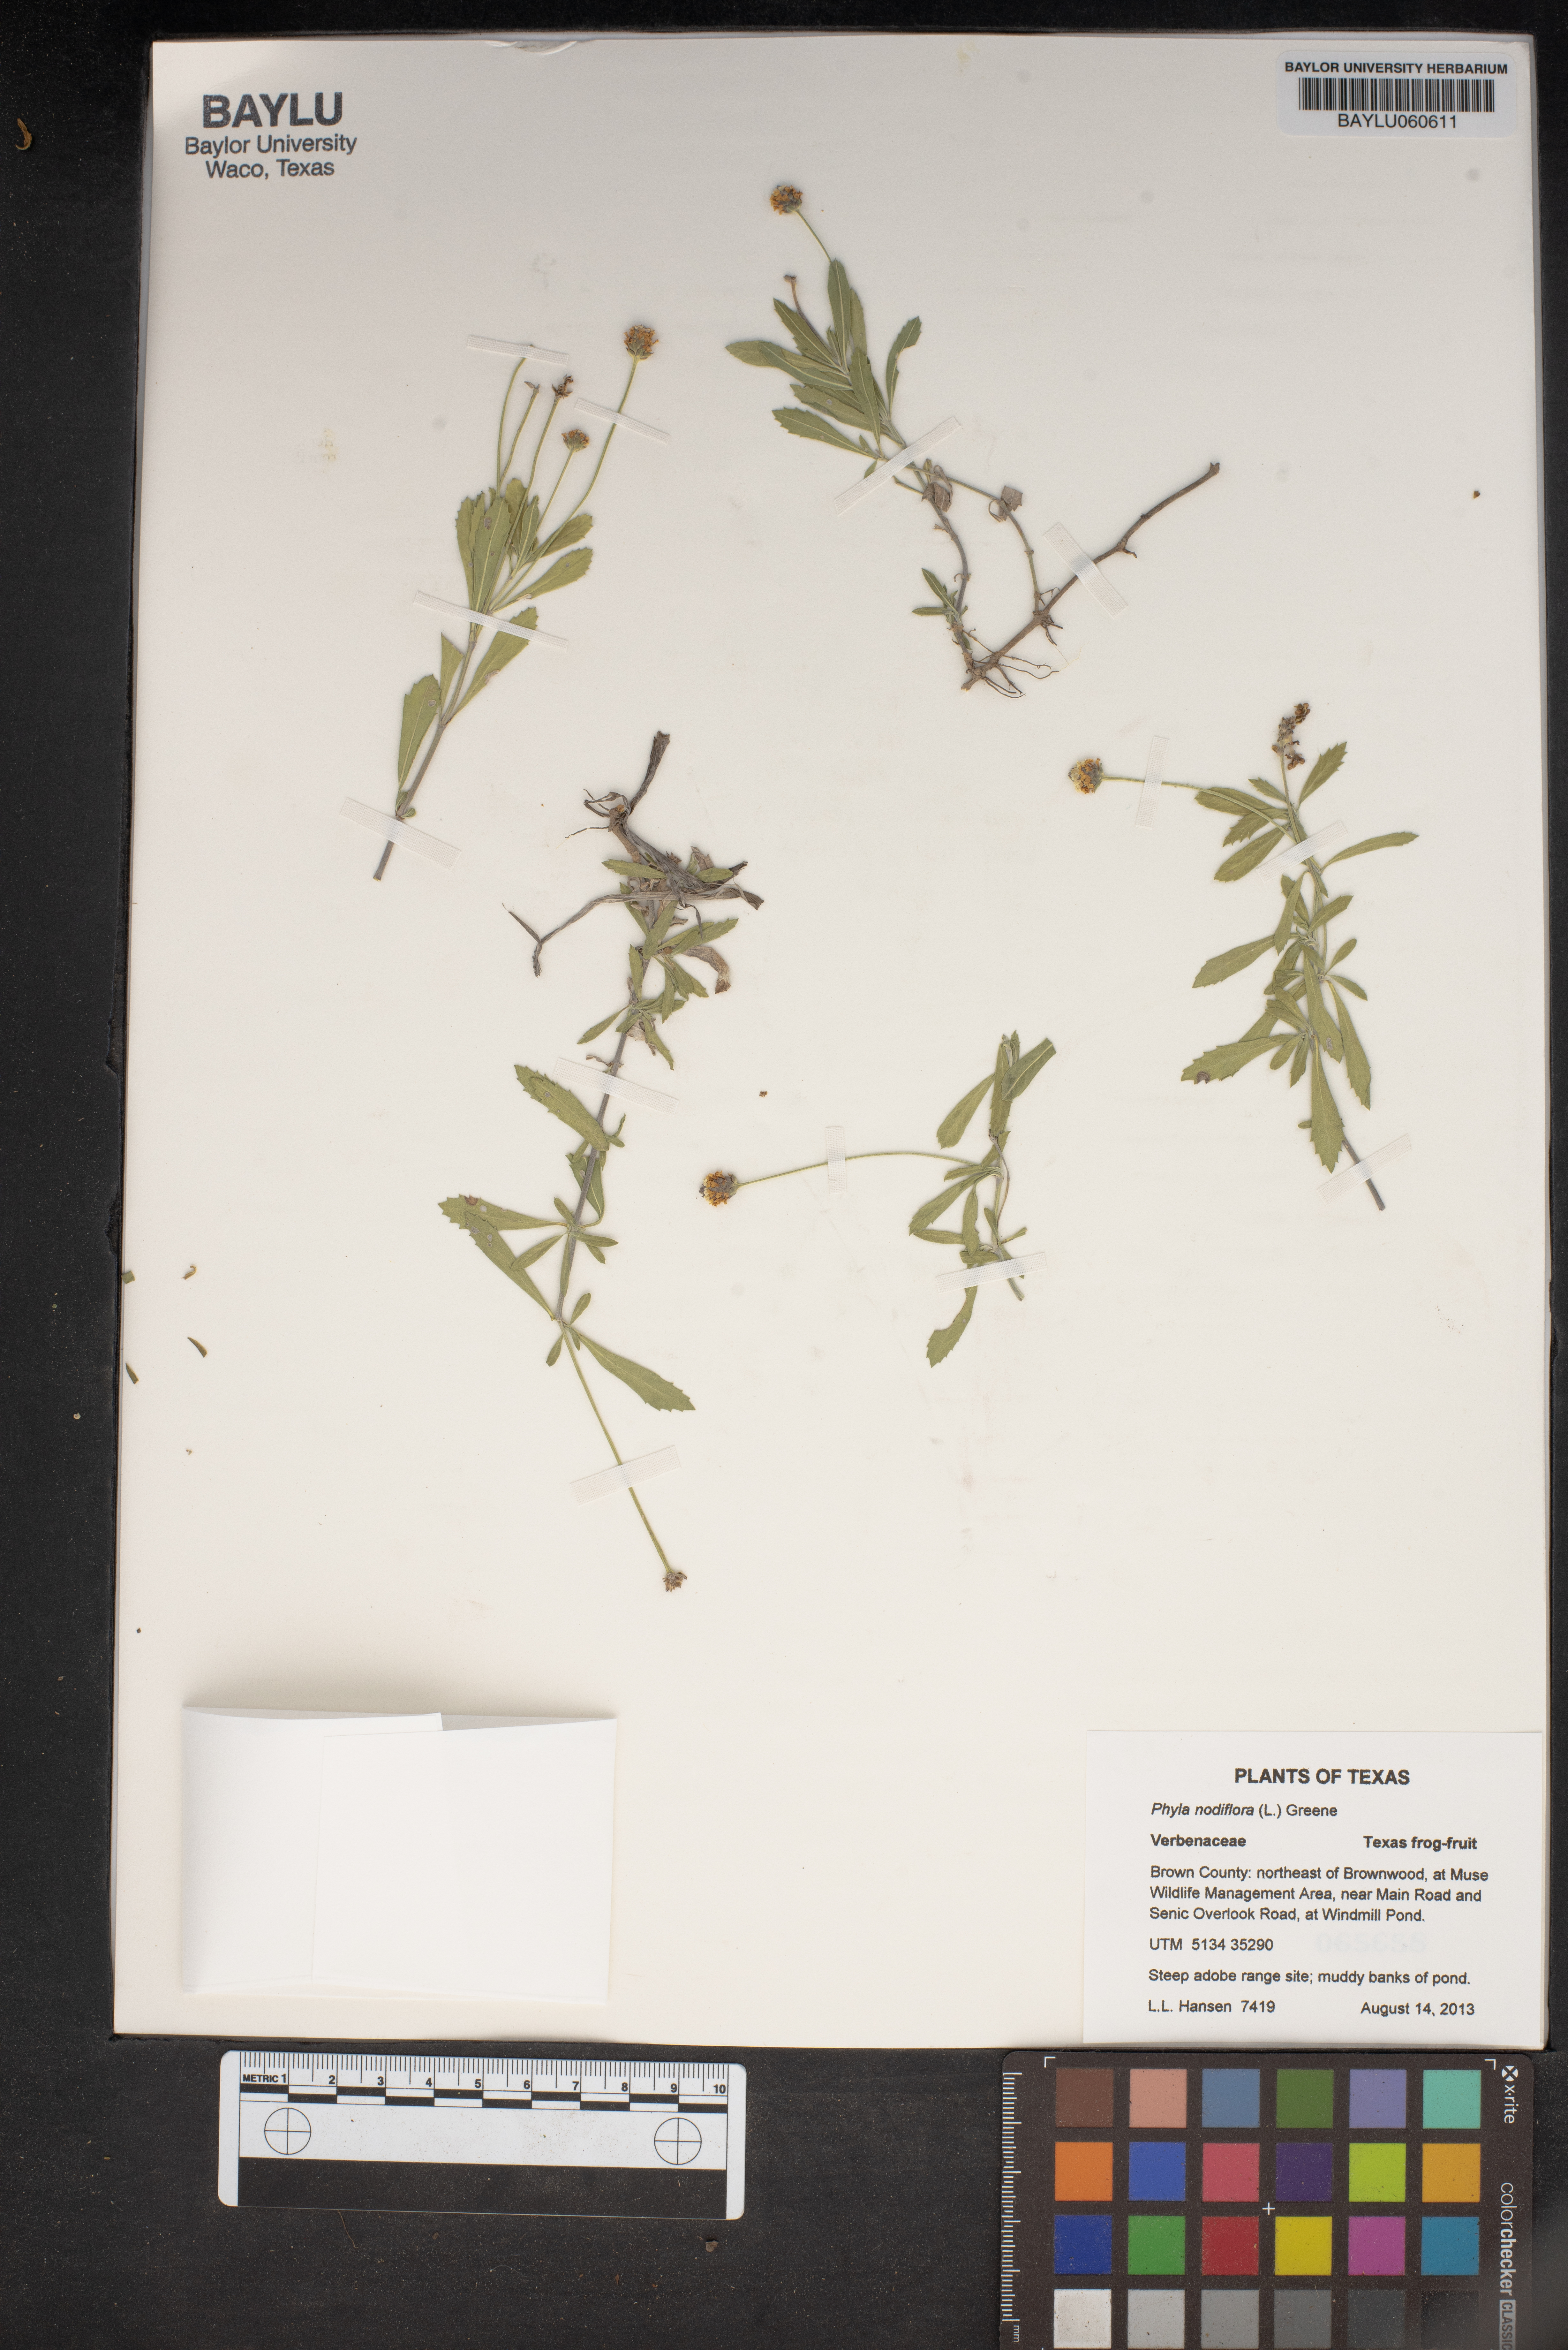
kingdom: Plantae
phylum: Tracheophyta
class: Magnoliopsida
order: Lamiales
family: Verbenaceae
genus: Phyla
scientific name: Phyla nodiflora
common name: Frogfruit
